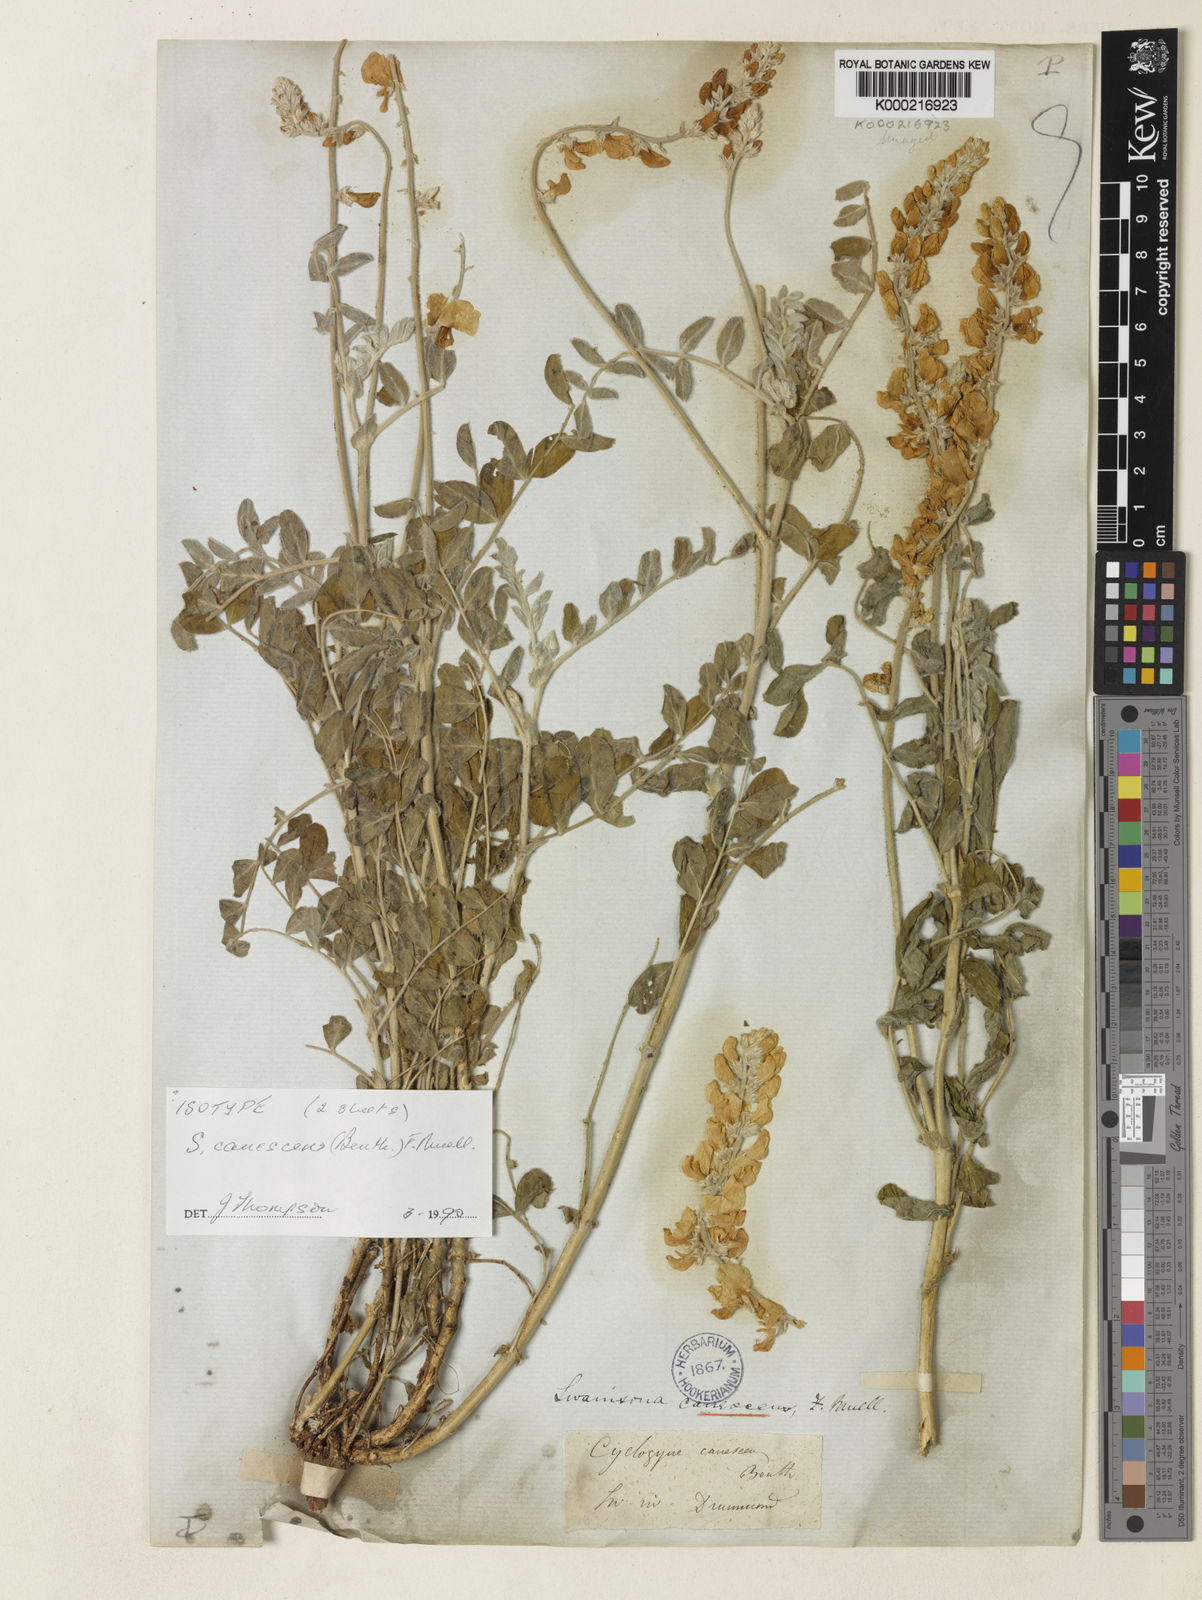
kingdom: Plantae
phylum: Tracheophyta
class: Magnoliopsida
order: Fabales
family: Fabaceae
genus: Swainsona
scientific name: Swainsona canescens
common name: Grey swainsona
